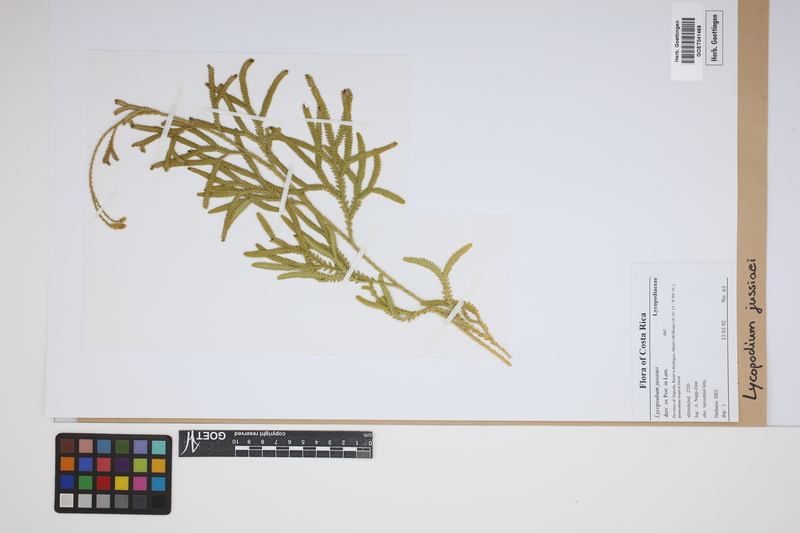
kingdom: Plantae
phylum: Tracheophyta
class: Lycopodiopsida
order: Lycopodiales
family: Lycopodiaceae
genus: Diphasium
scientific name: Diphasium jussiaei
